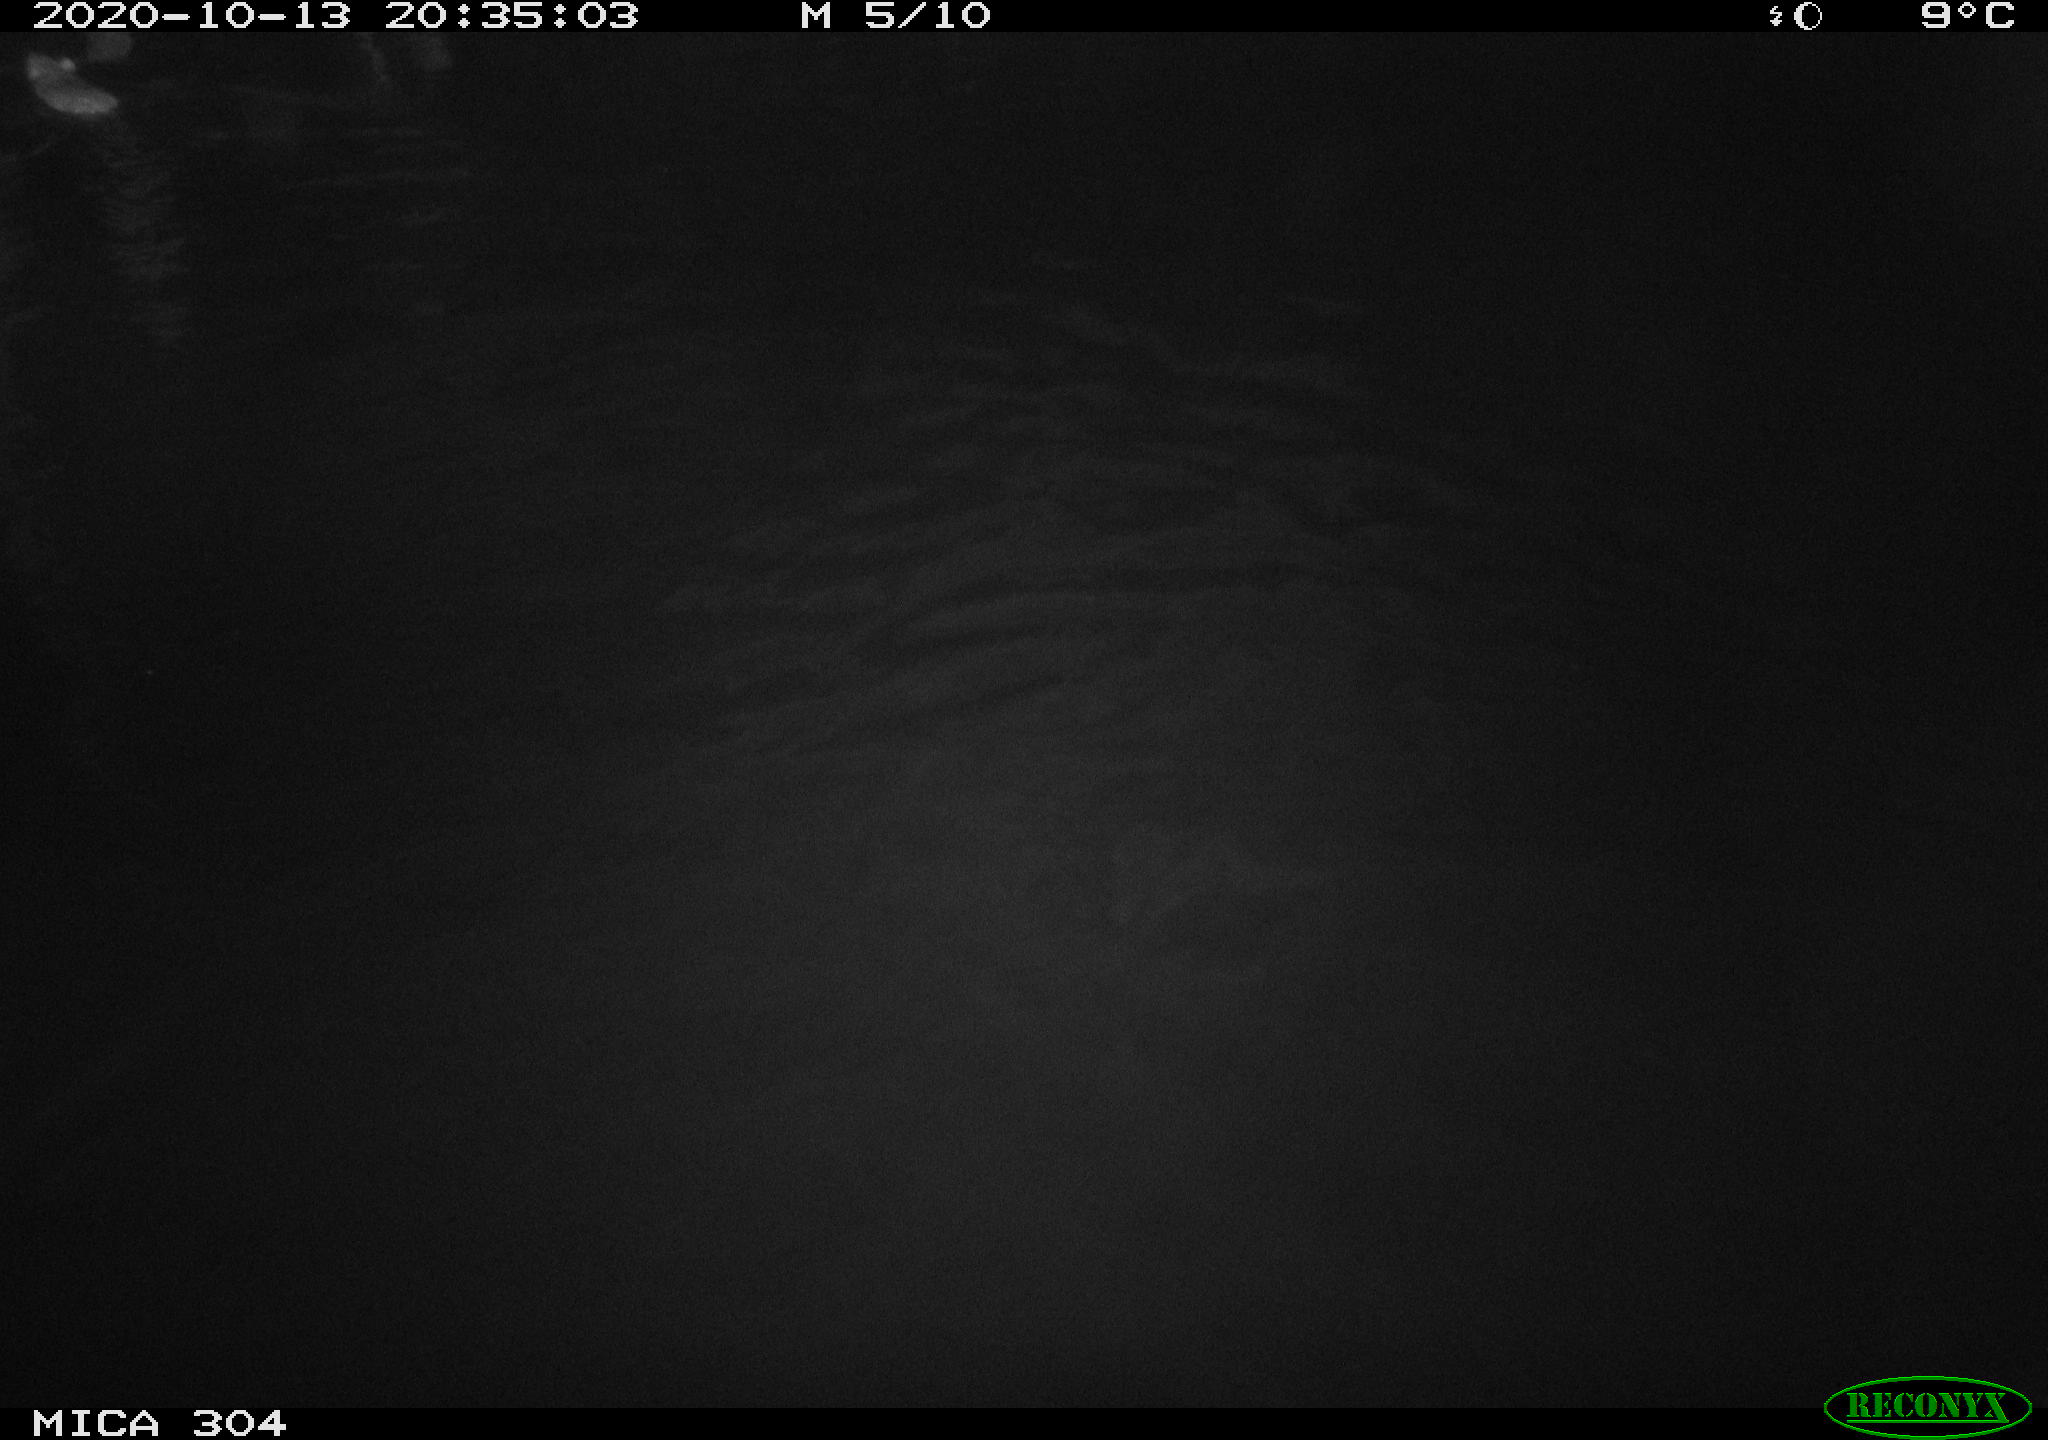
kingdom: Animalia
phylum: Chordata
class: Mammalia
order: Rodentia
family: Muridae
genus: Rattus
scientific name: Rattus norvegicus
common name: Brown rat
